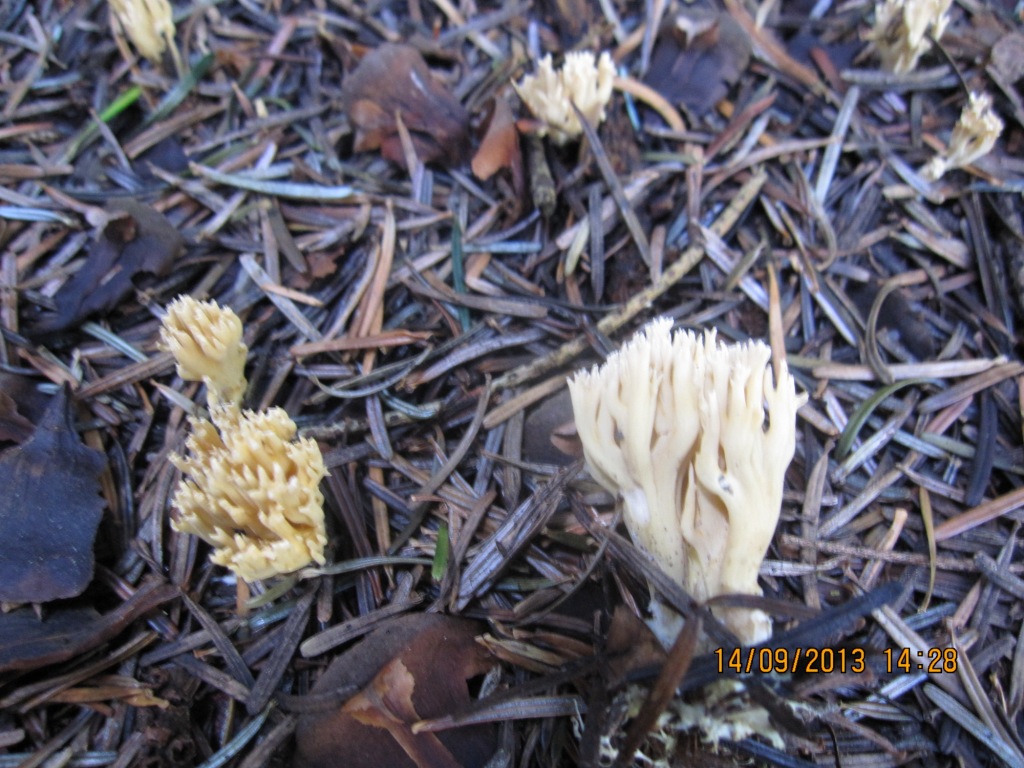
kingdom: Fungi
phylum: Basidiomycota
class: Agaricomycetes
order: Gomphales
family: Gomphaceae
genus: Phaeoclavulina
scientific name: Phaeoclavulina eumorpha
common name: gran-koralsvamp
